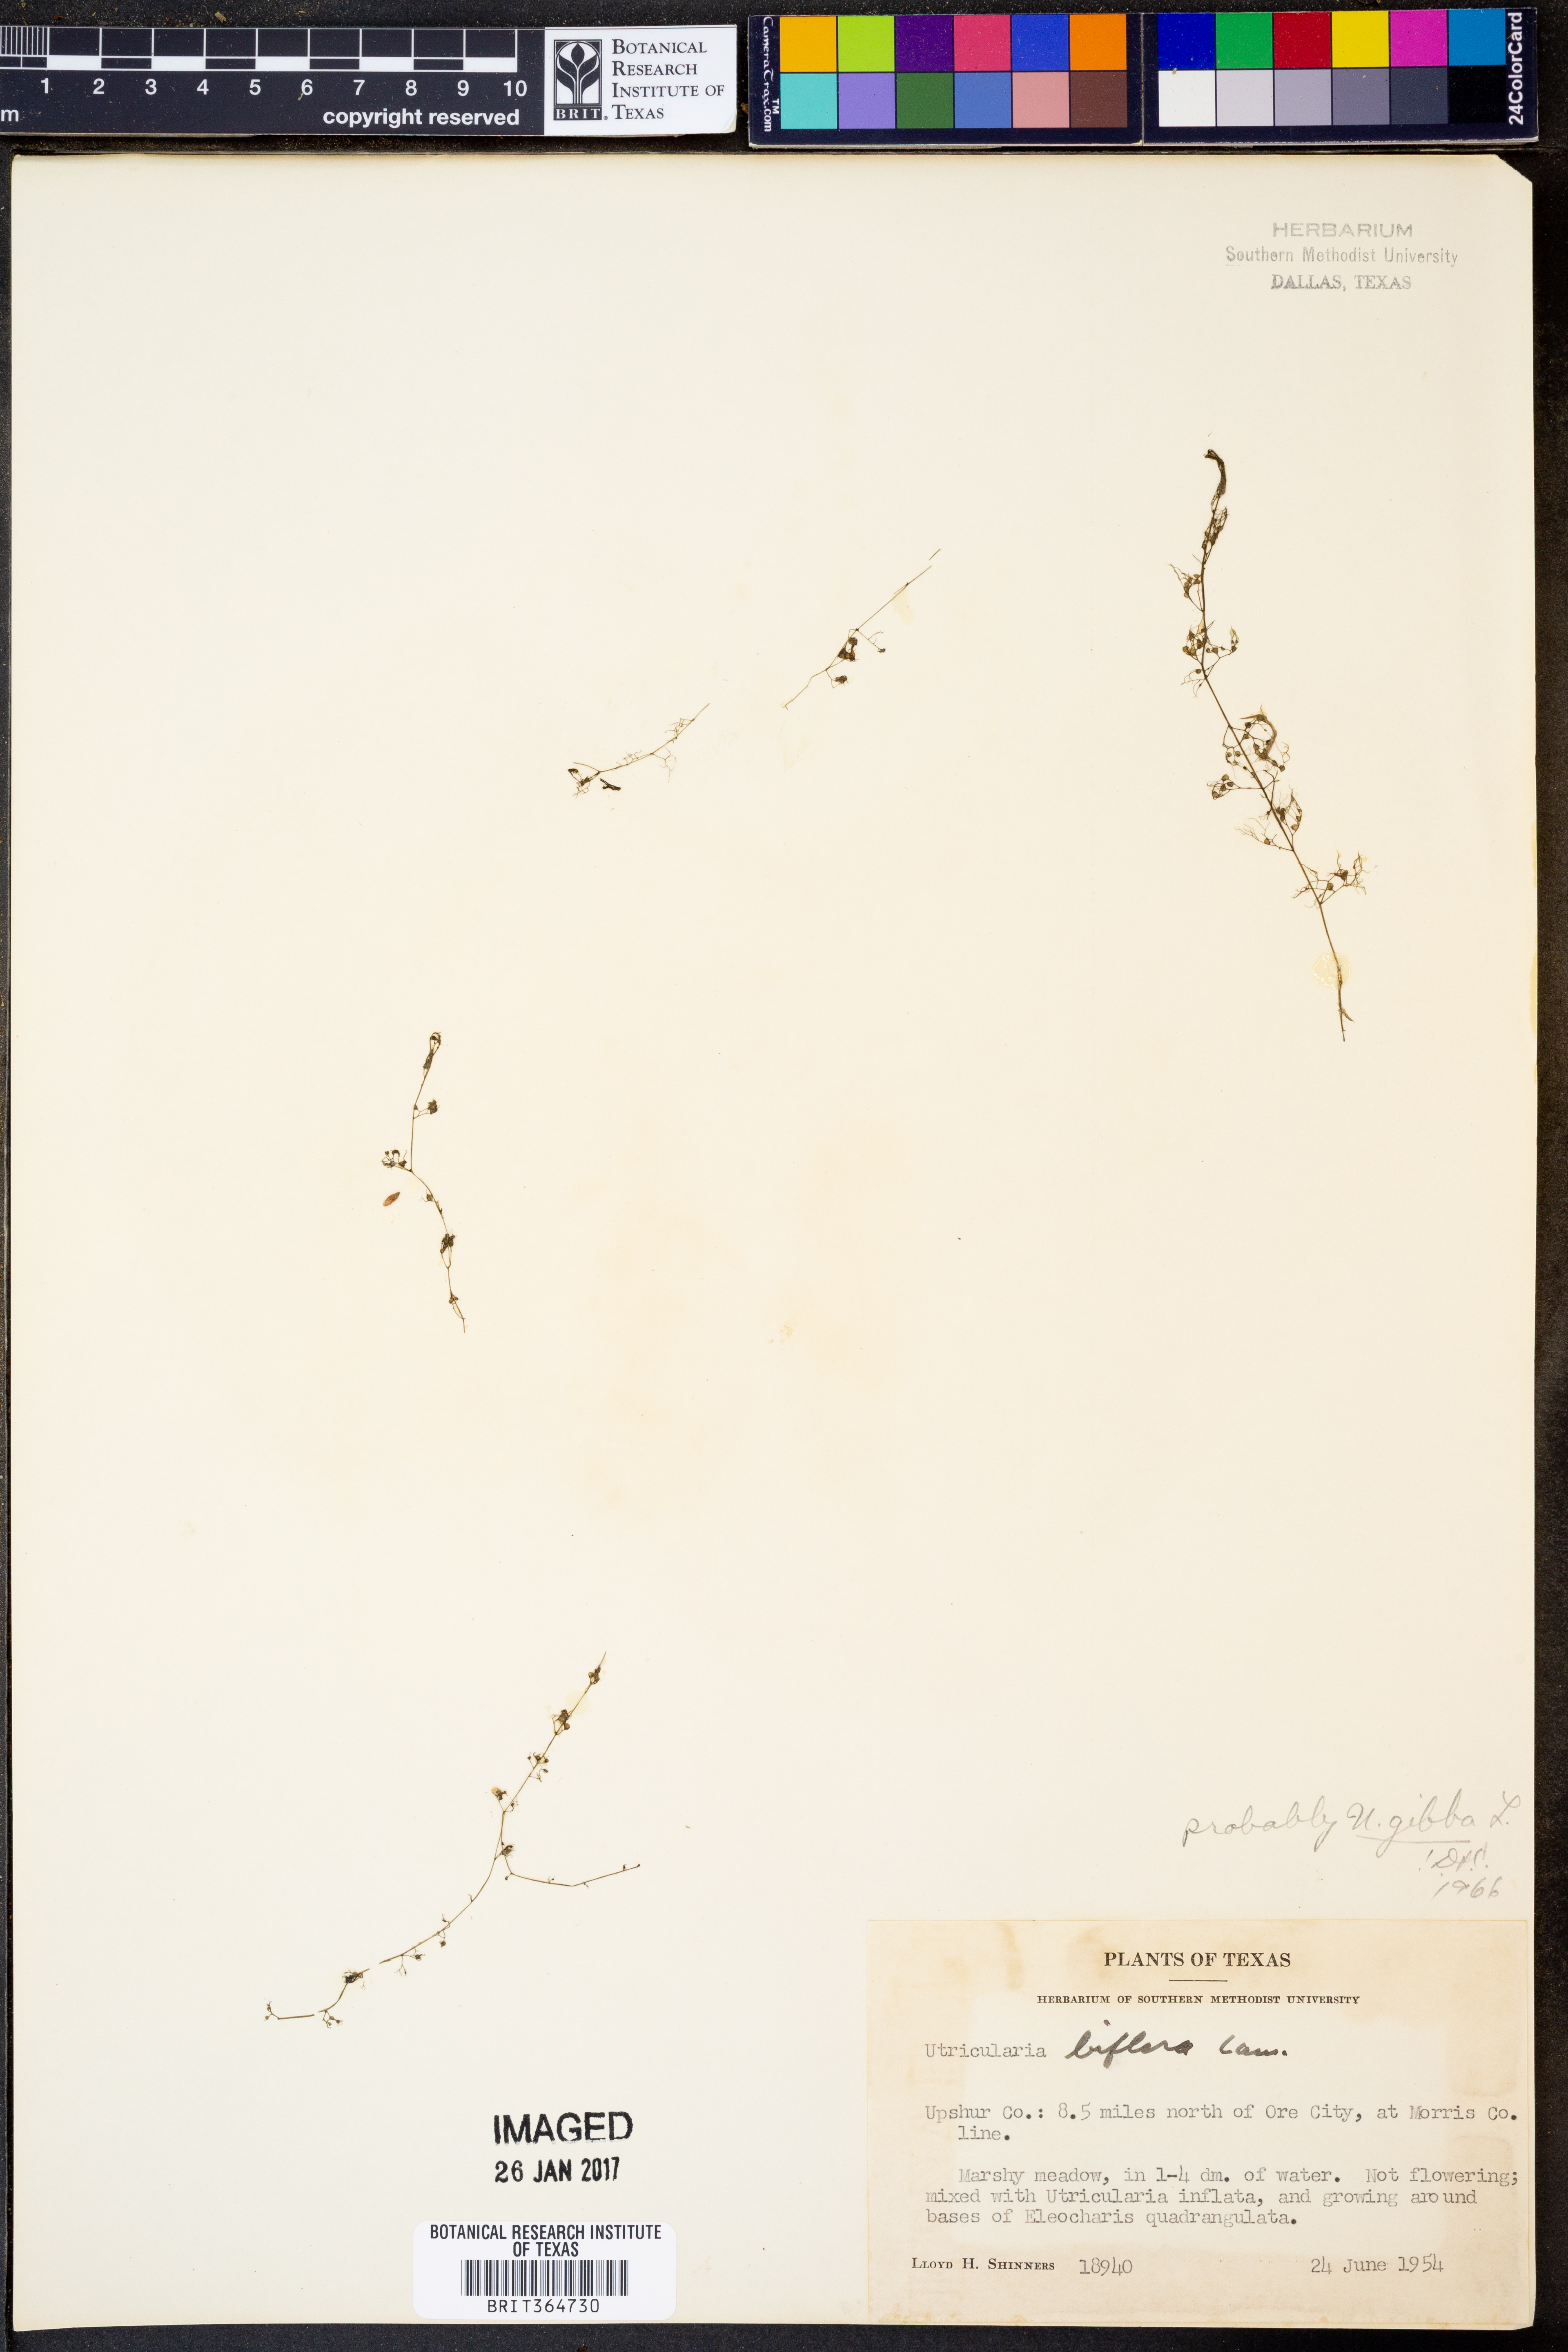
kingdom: Plantae
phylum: Tracheophyta
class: Magnoliopsida
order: Lamiales
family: Lentibulariaceae
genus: Utricularia
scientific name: Utricularia gibba
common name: Humped bladderwort
